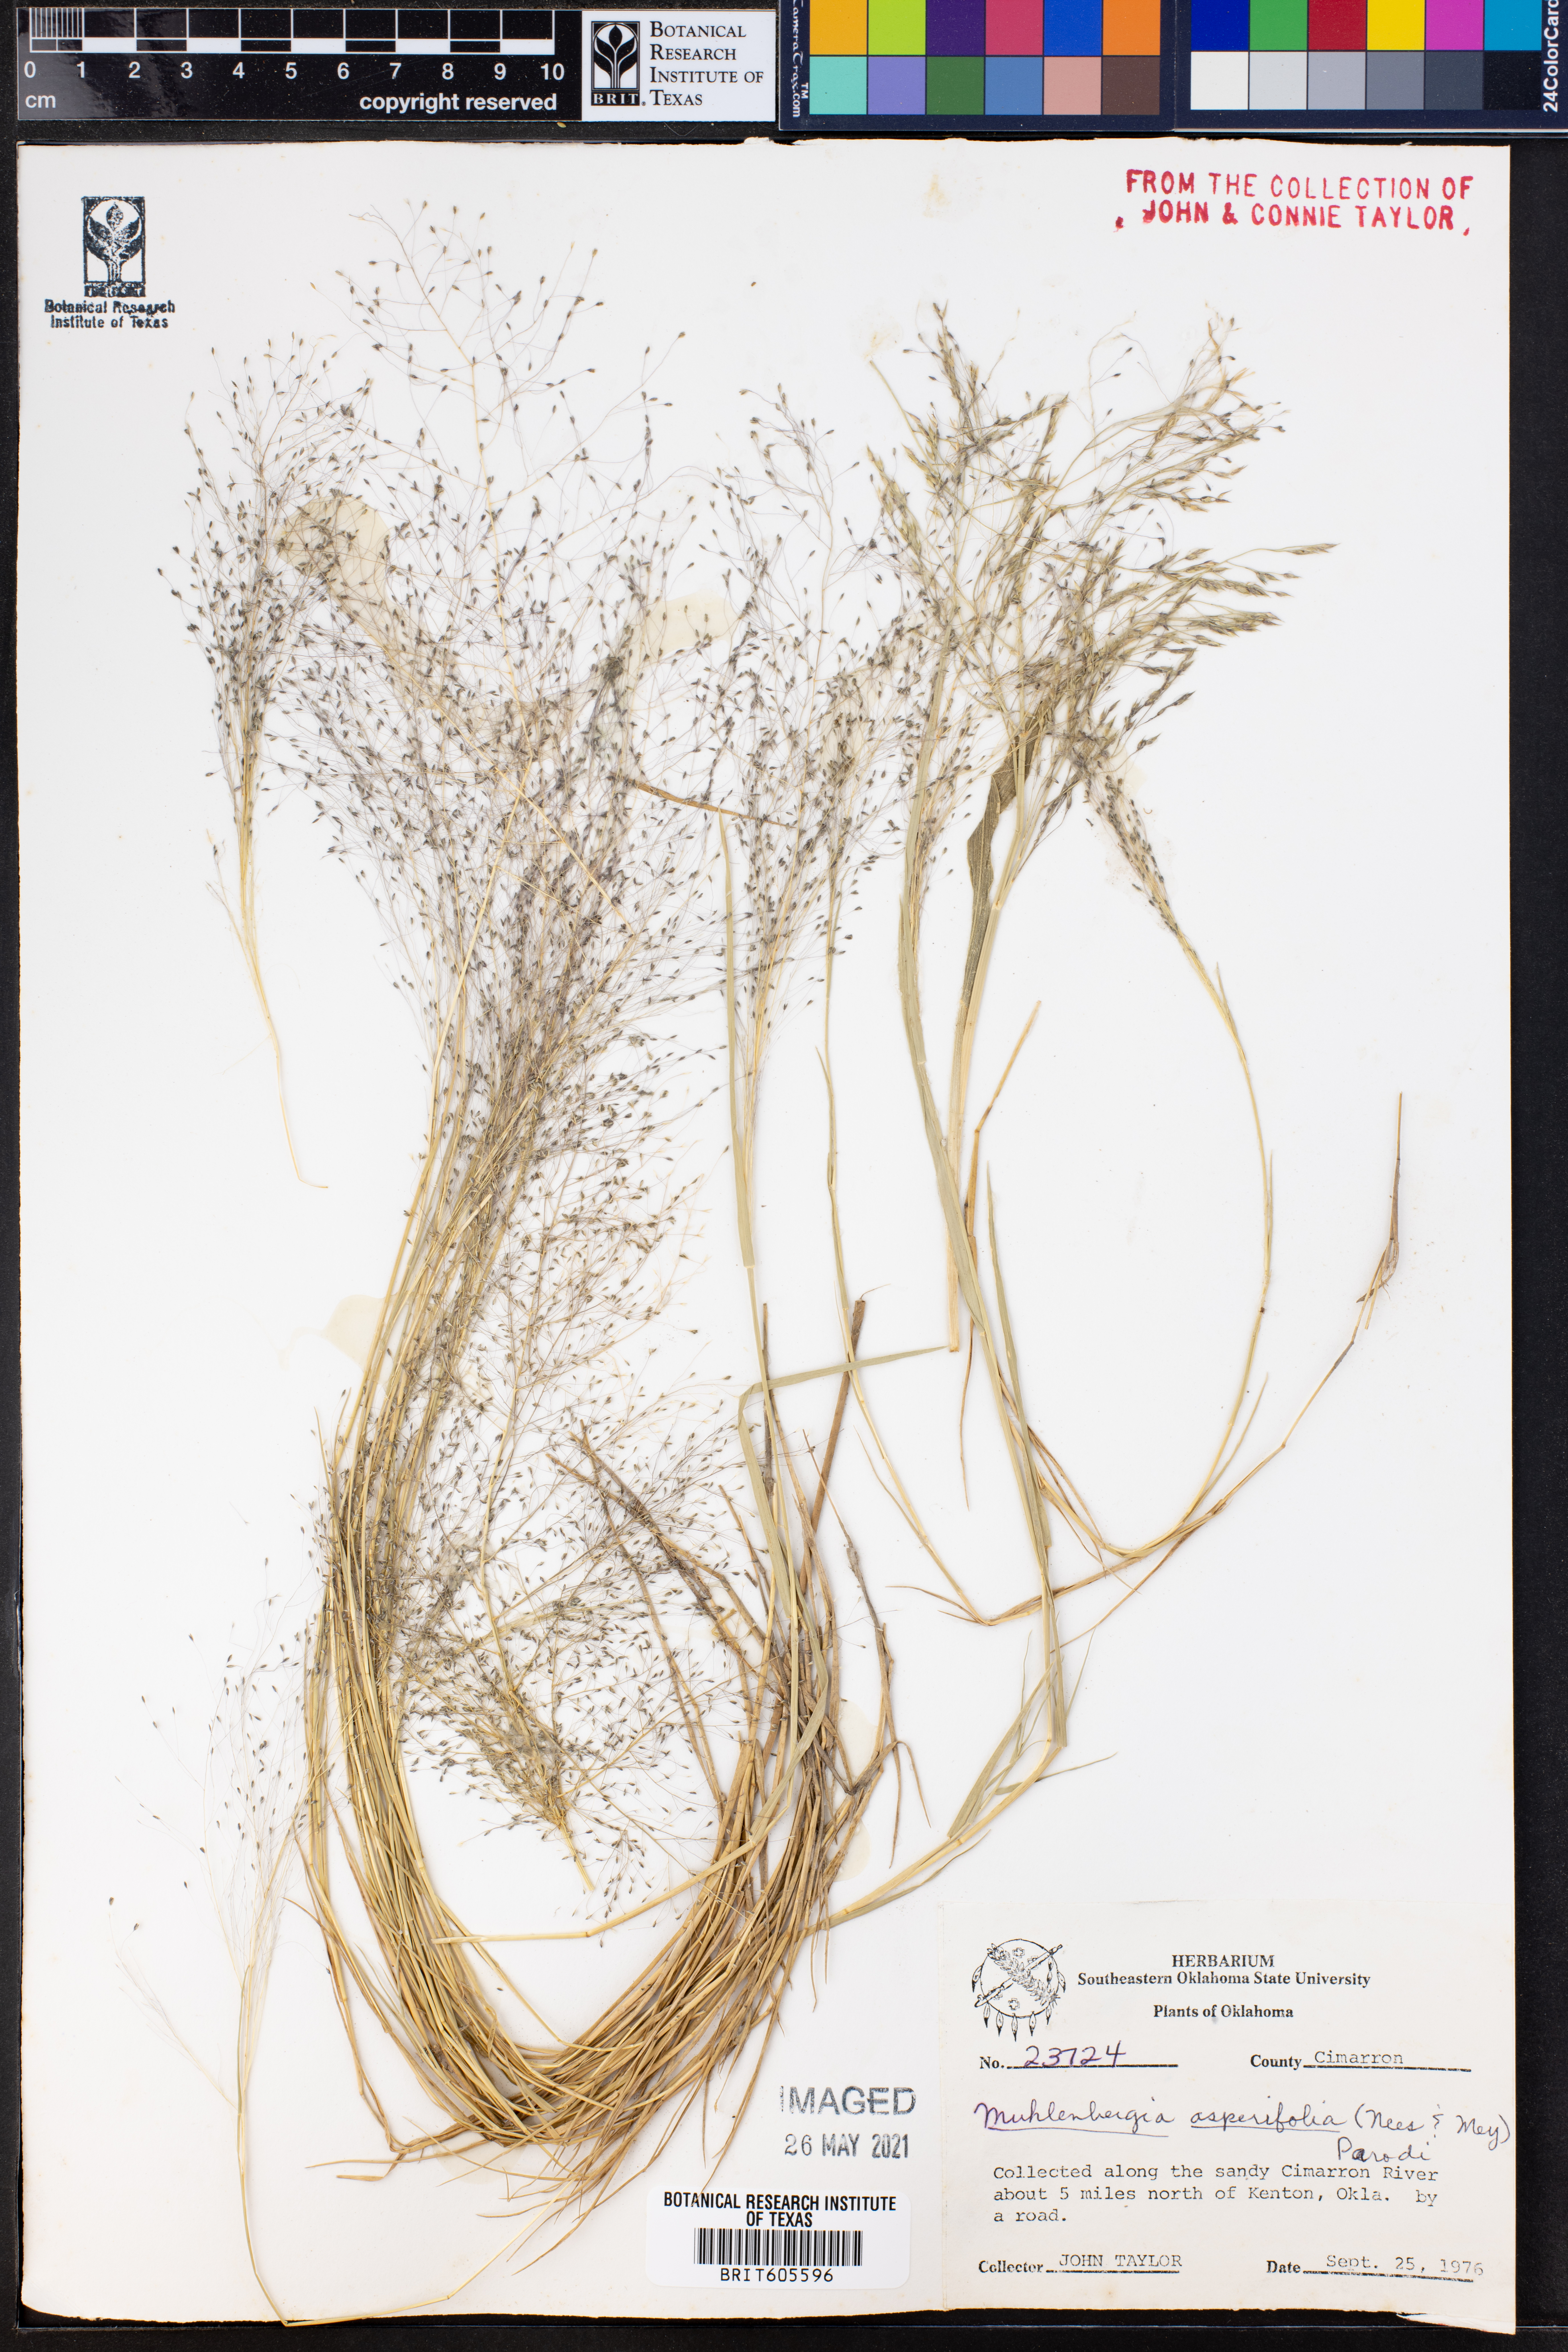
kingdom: Plantae
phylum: Tracheophyta
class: Liliopsida
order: Poales
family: Poaceae
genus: Muhlenbergia
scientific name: Muhlenbergia asperifolia
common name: Alkali muhly
